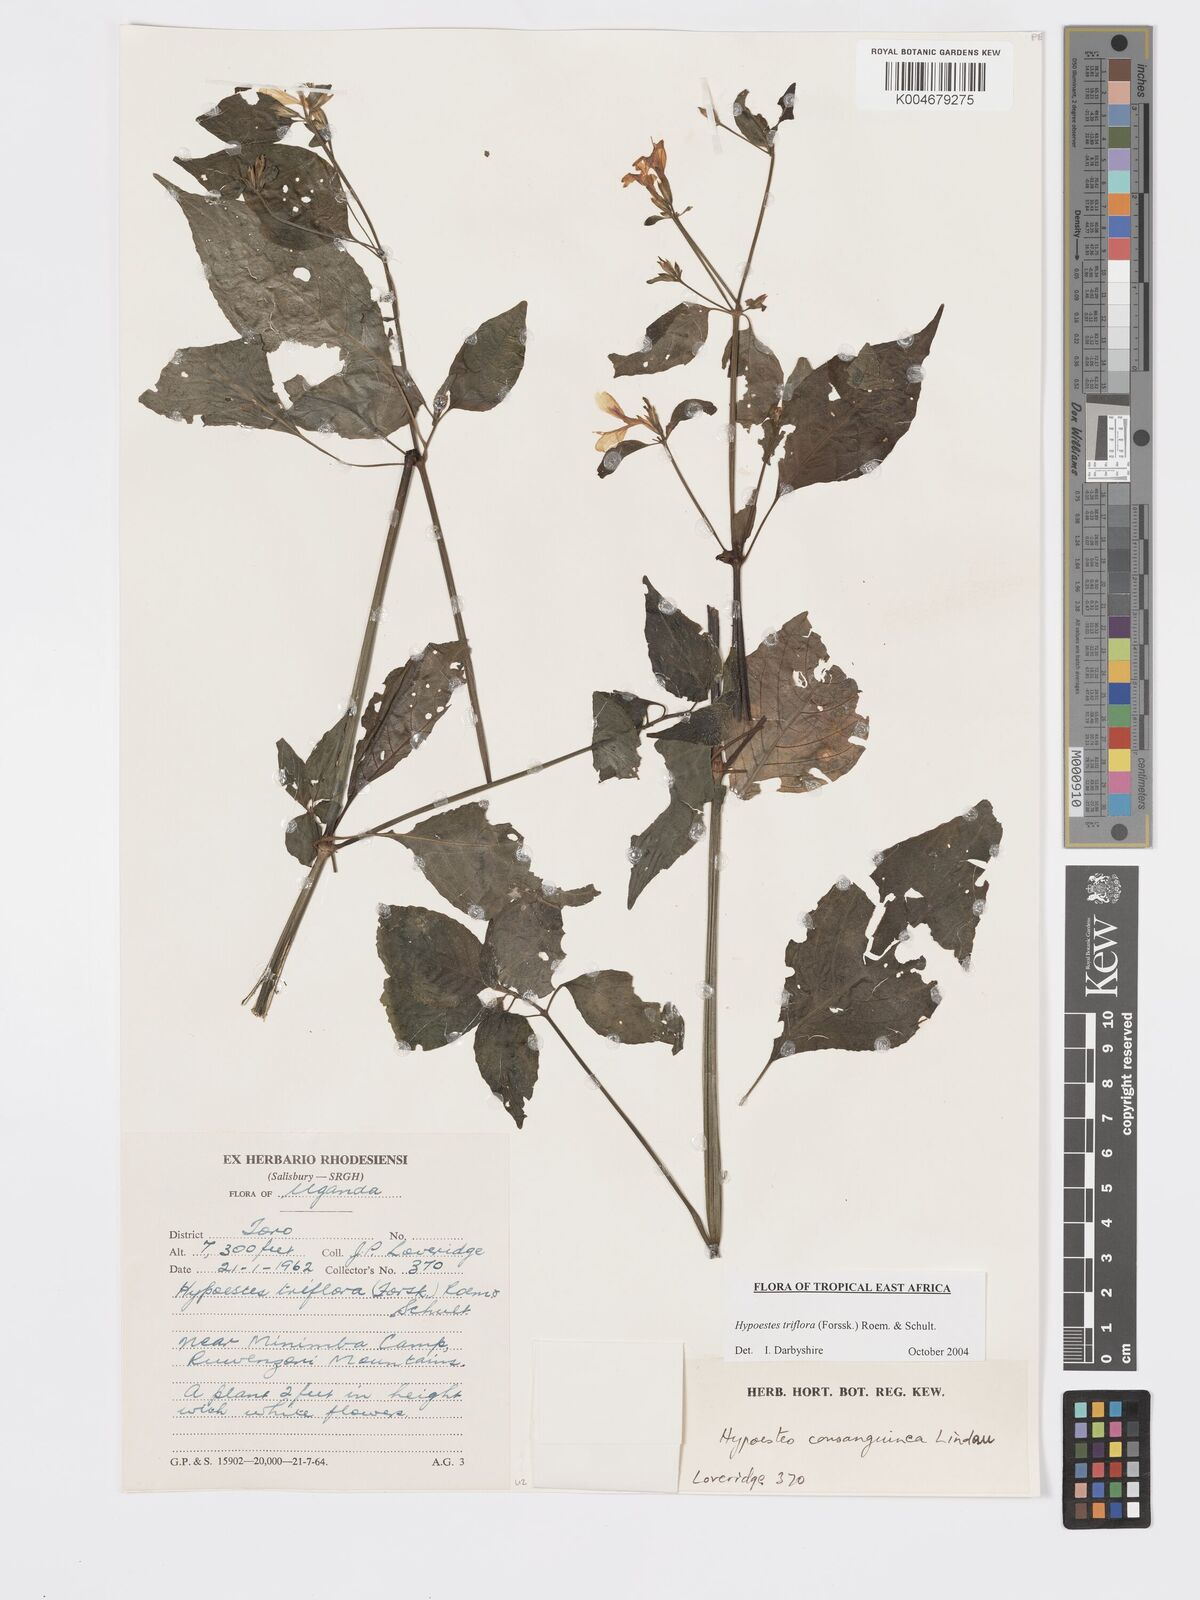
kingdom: Plantae
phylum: Tracheophyta
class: Magnoliopsida
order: Lamiales
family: Acanthaceae
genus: Hypoestes
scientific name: Hypoestes triflora
